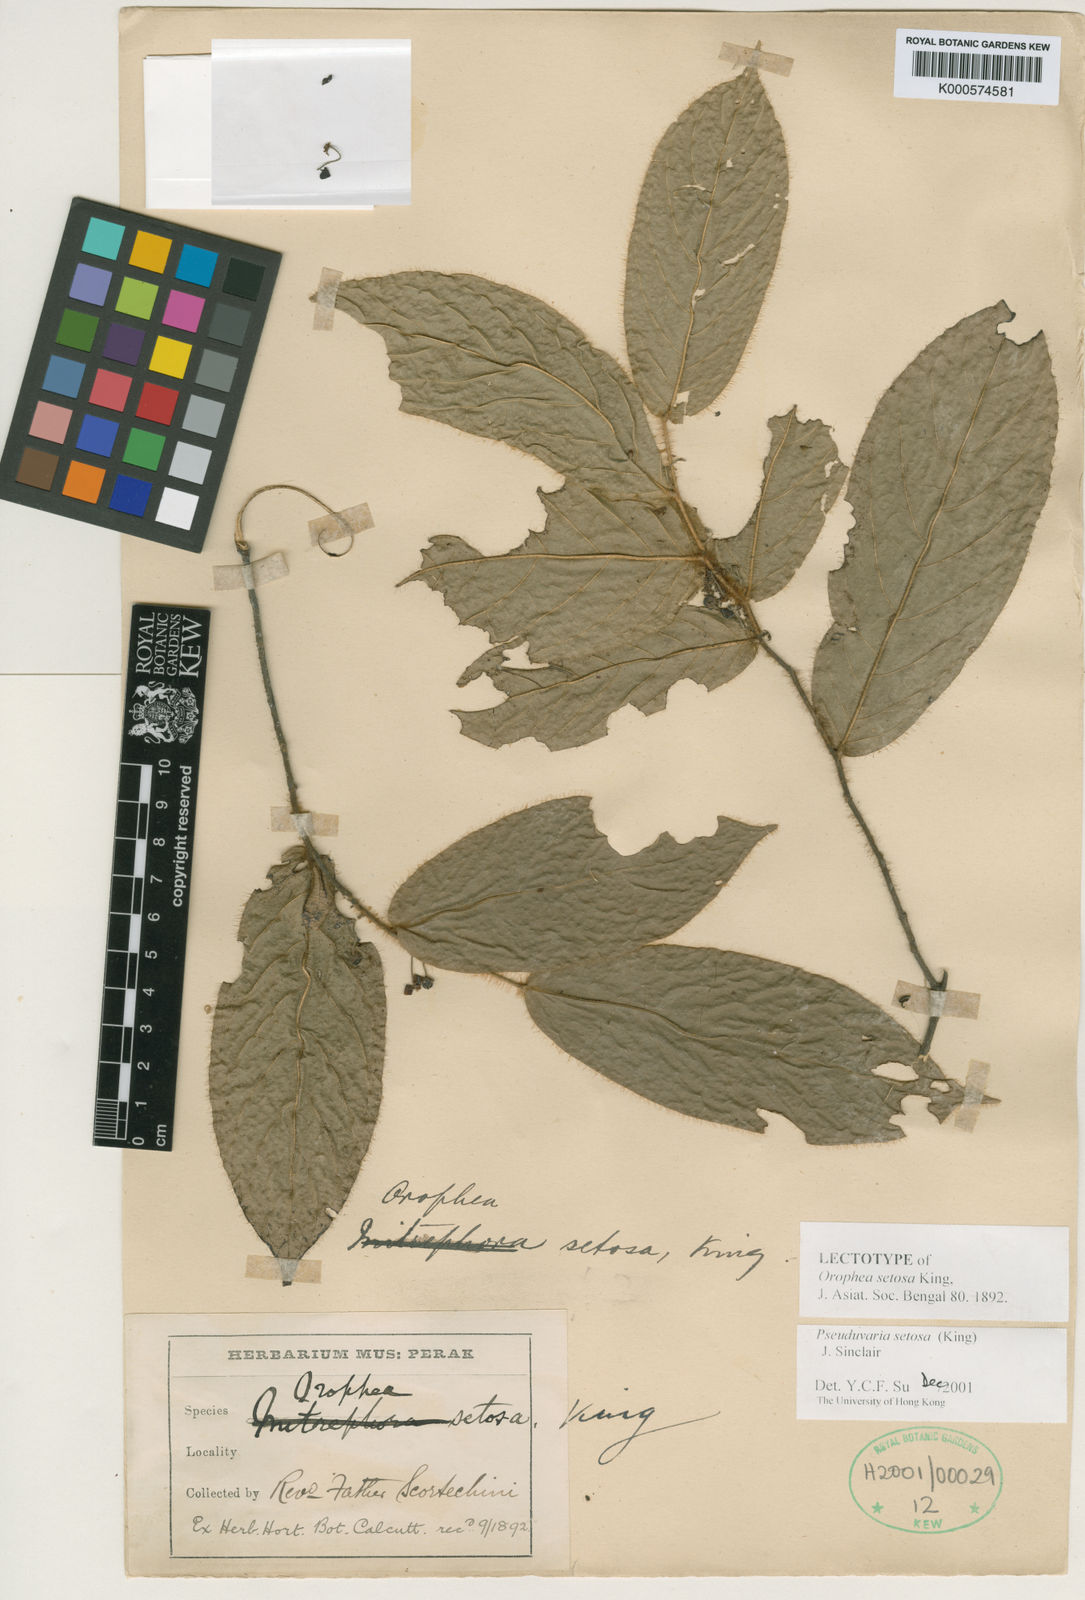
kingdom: Plantae
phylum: Tracheophyta
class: Magnoliopsida
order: Magnoliales
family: Annonaceae
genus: Pseuduvaria
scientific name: Pseuduvaria setosa
